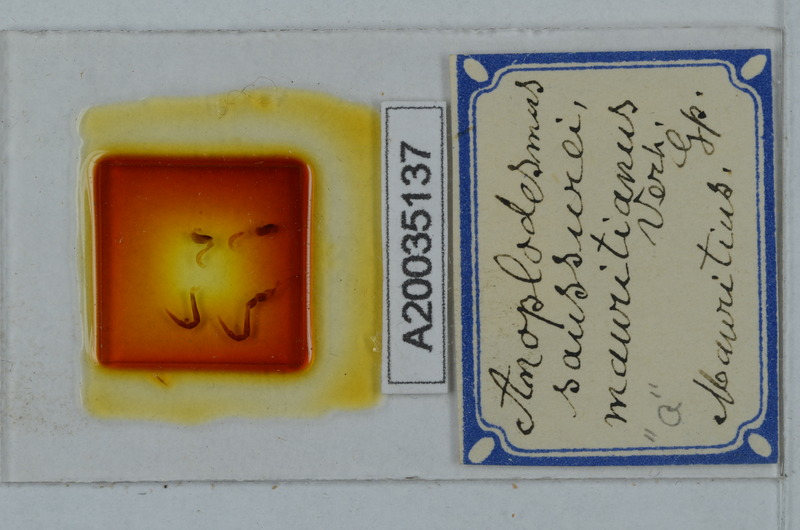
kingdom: Animalia
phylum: Arthropoda
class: Diplopoda
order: Polydesmida
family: Paradoxosomatidae
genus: Anoplodesmus
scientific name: Anoplodesmus saussurii
